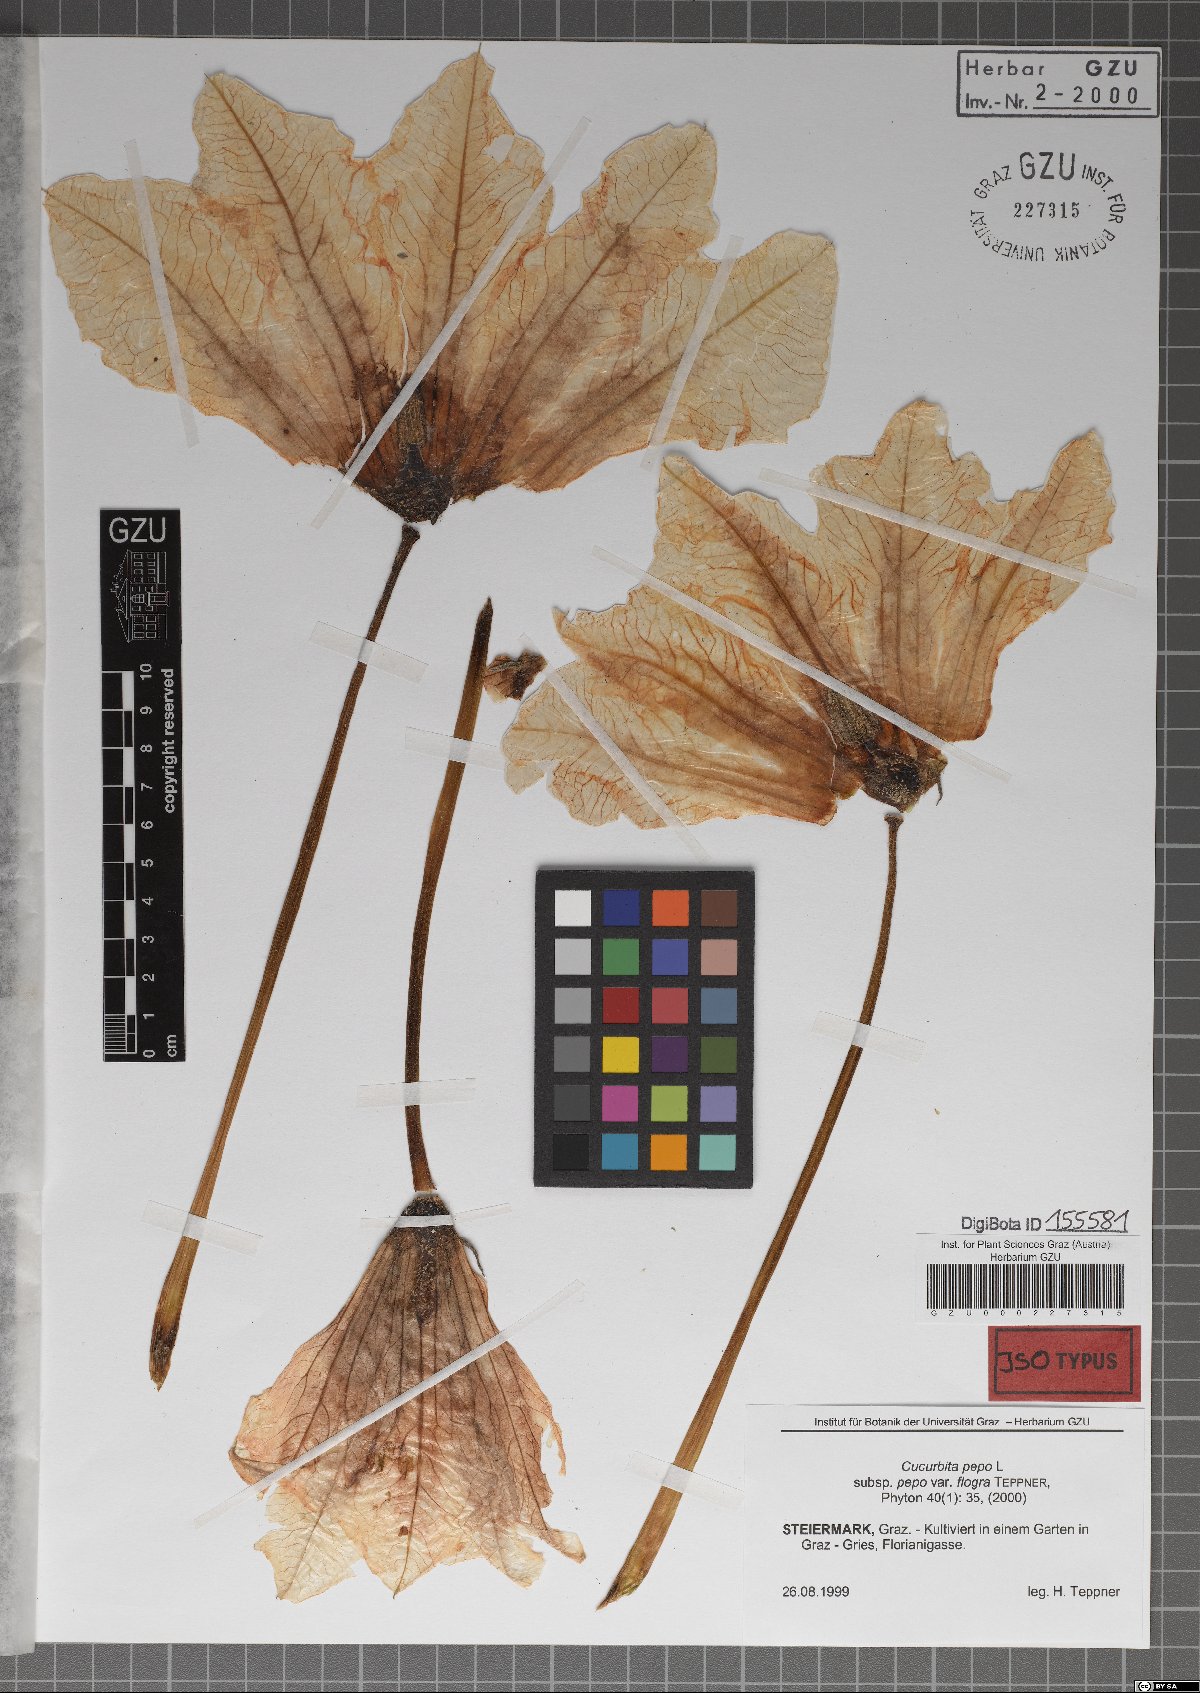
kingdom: Plantae
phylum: Tracheophyta
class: Magnoliopsida
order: Cucurbitales
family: Cucurbitaceae
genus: Cucurbita
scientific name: Cucurbita pepo
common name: Marrow
